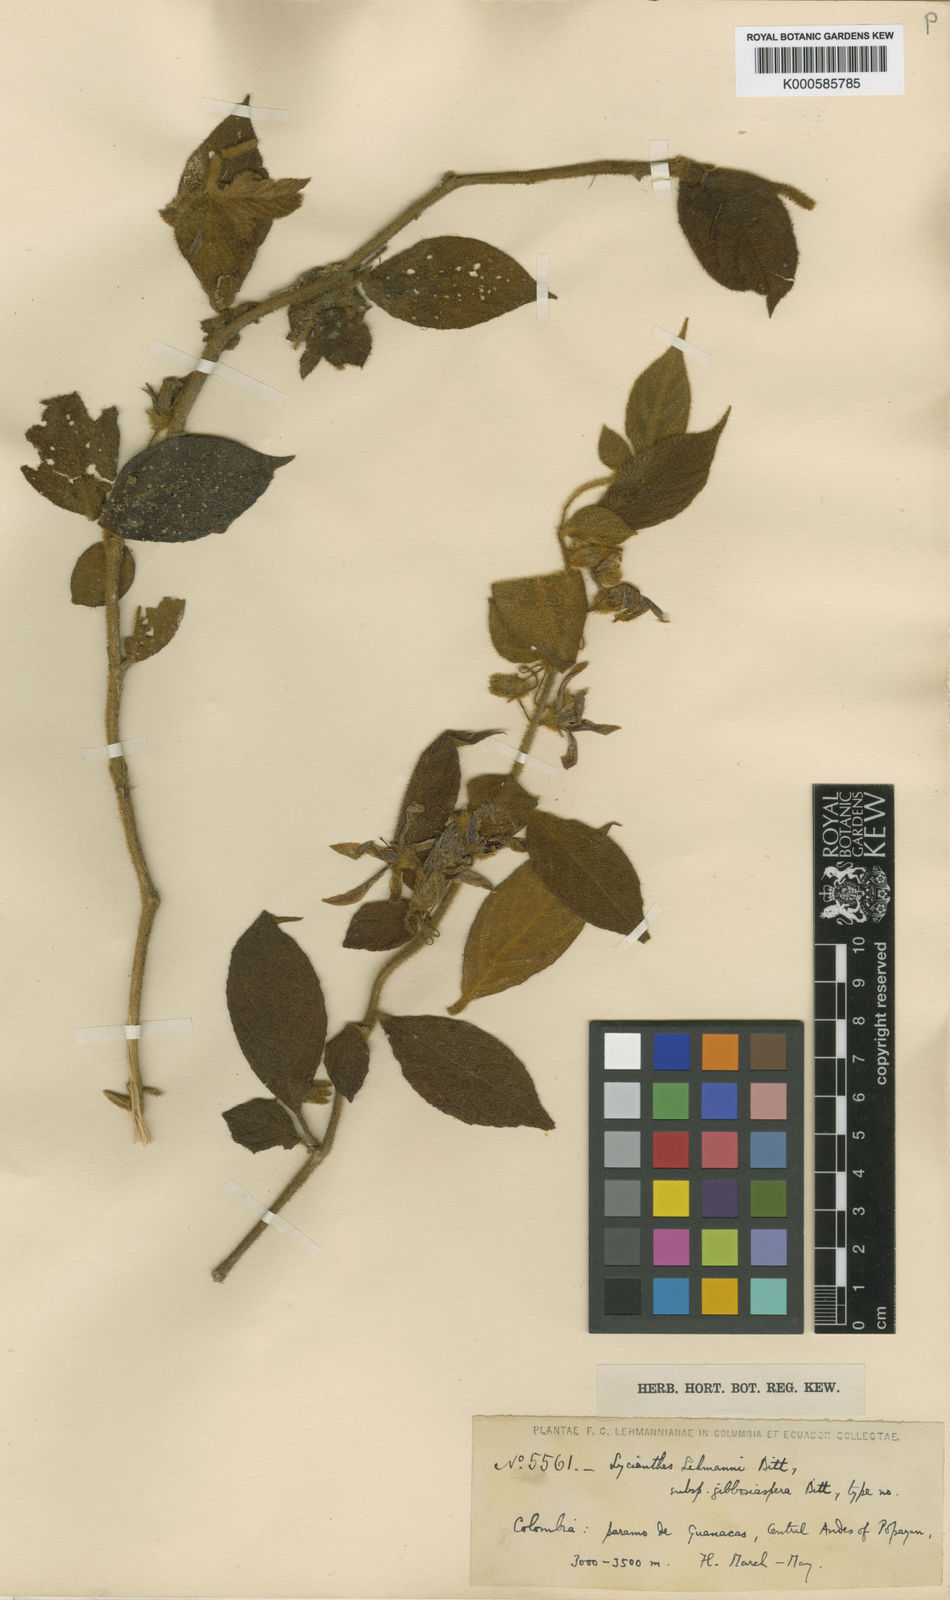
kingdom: Plantae
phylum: Tracheophyta
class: Magnoliopsida
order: Solanales
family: Solanaceae
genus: Lycianthes
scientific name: Lycianthes acutifolia
